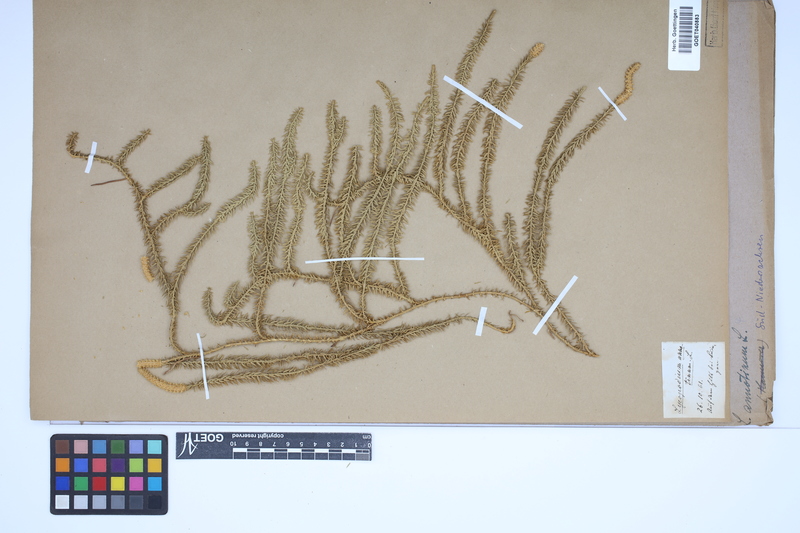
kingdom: Plantae
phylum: Tracheophyta
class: Lycopodiopsida
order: Lycopodiales
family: Lycopodiaceae
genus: Spinulum
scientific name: Spinulum annotinum
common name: Interrupted club-moss
